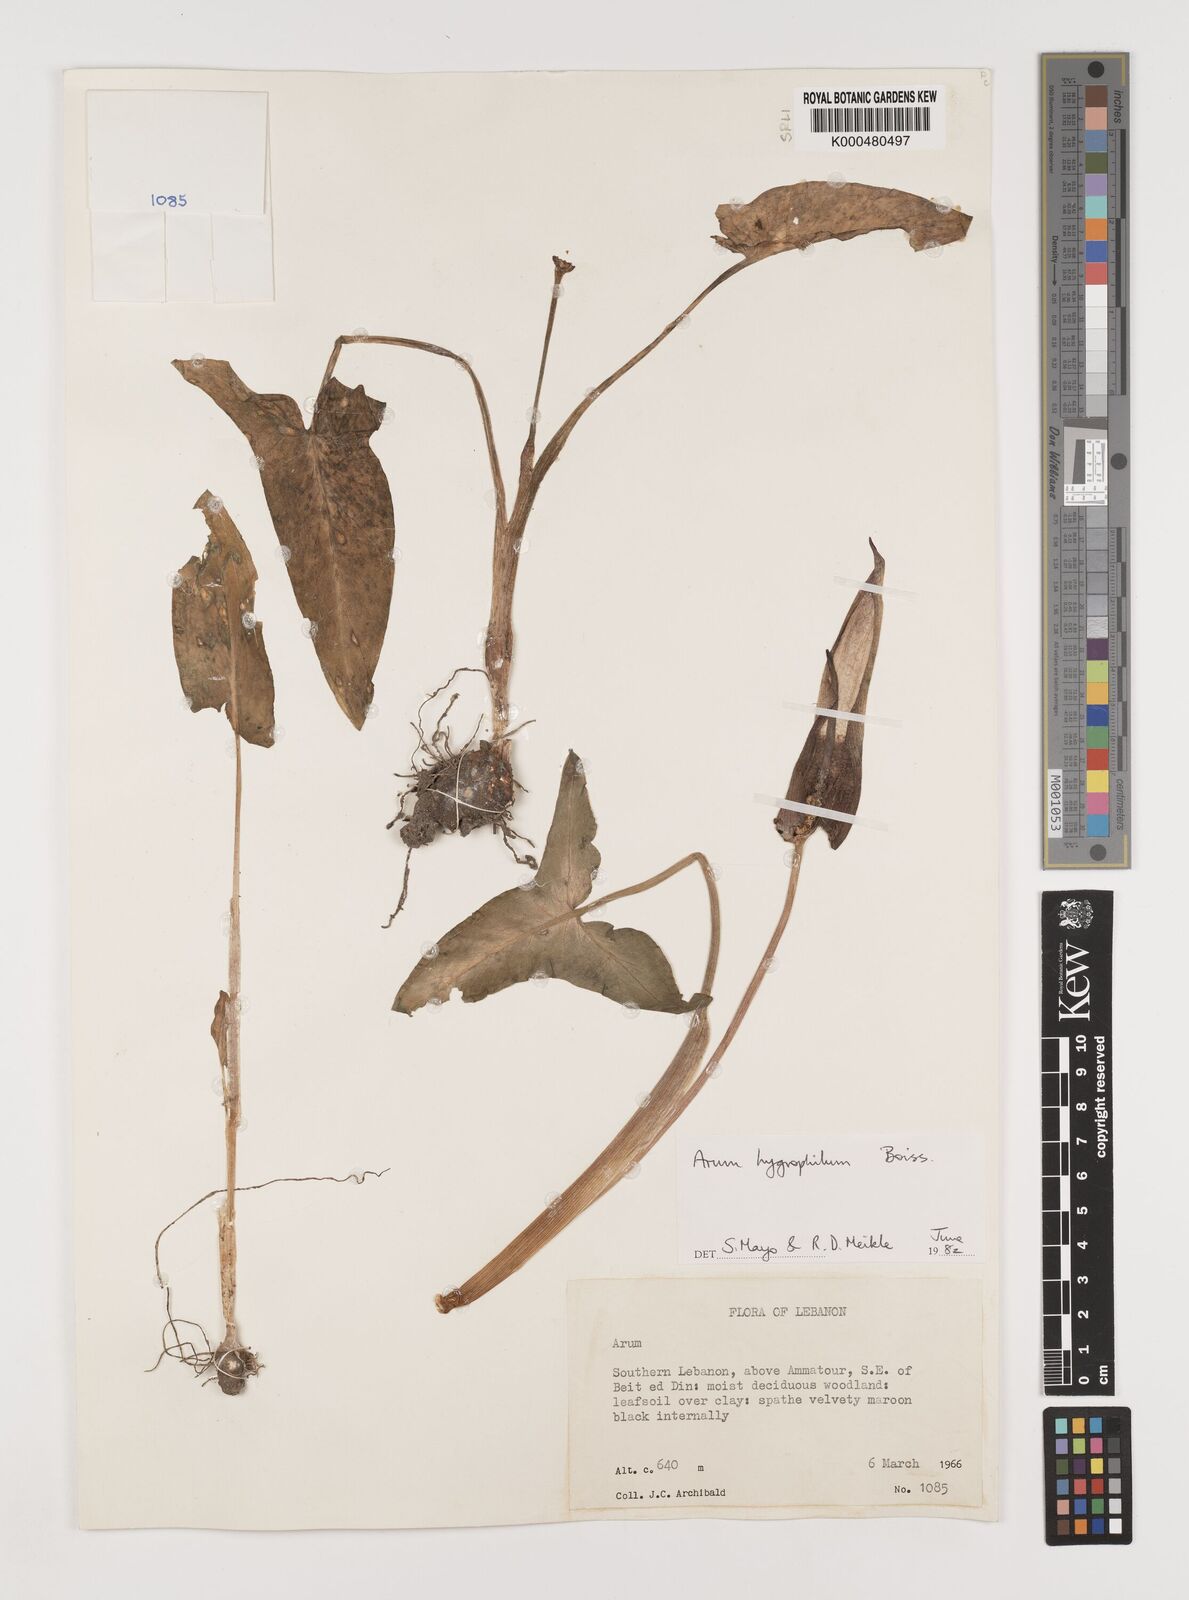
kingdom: Plantae
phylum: Tracheophyta
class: Liliopsida
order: Alismatales
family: Araceae
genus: Arum
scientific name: Arum hygrophilum
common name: Water arum
